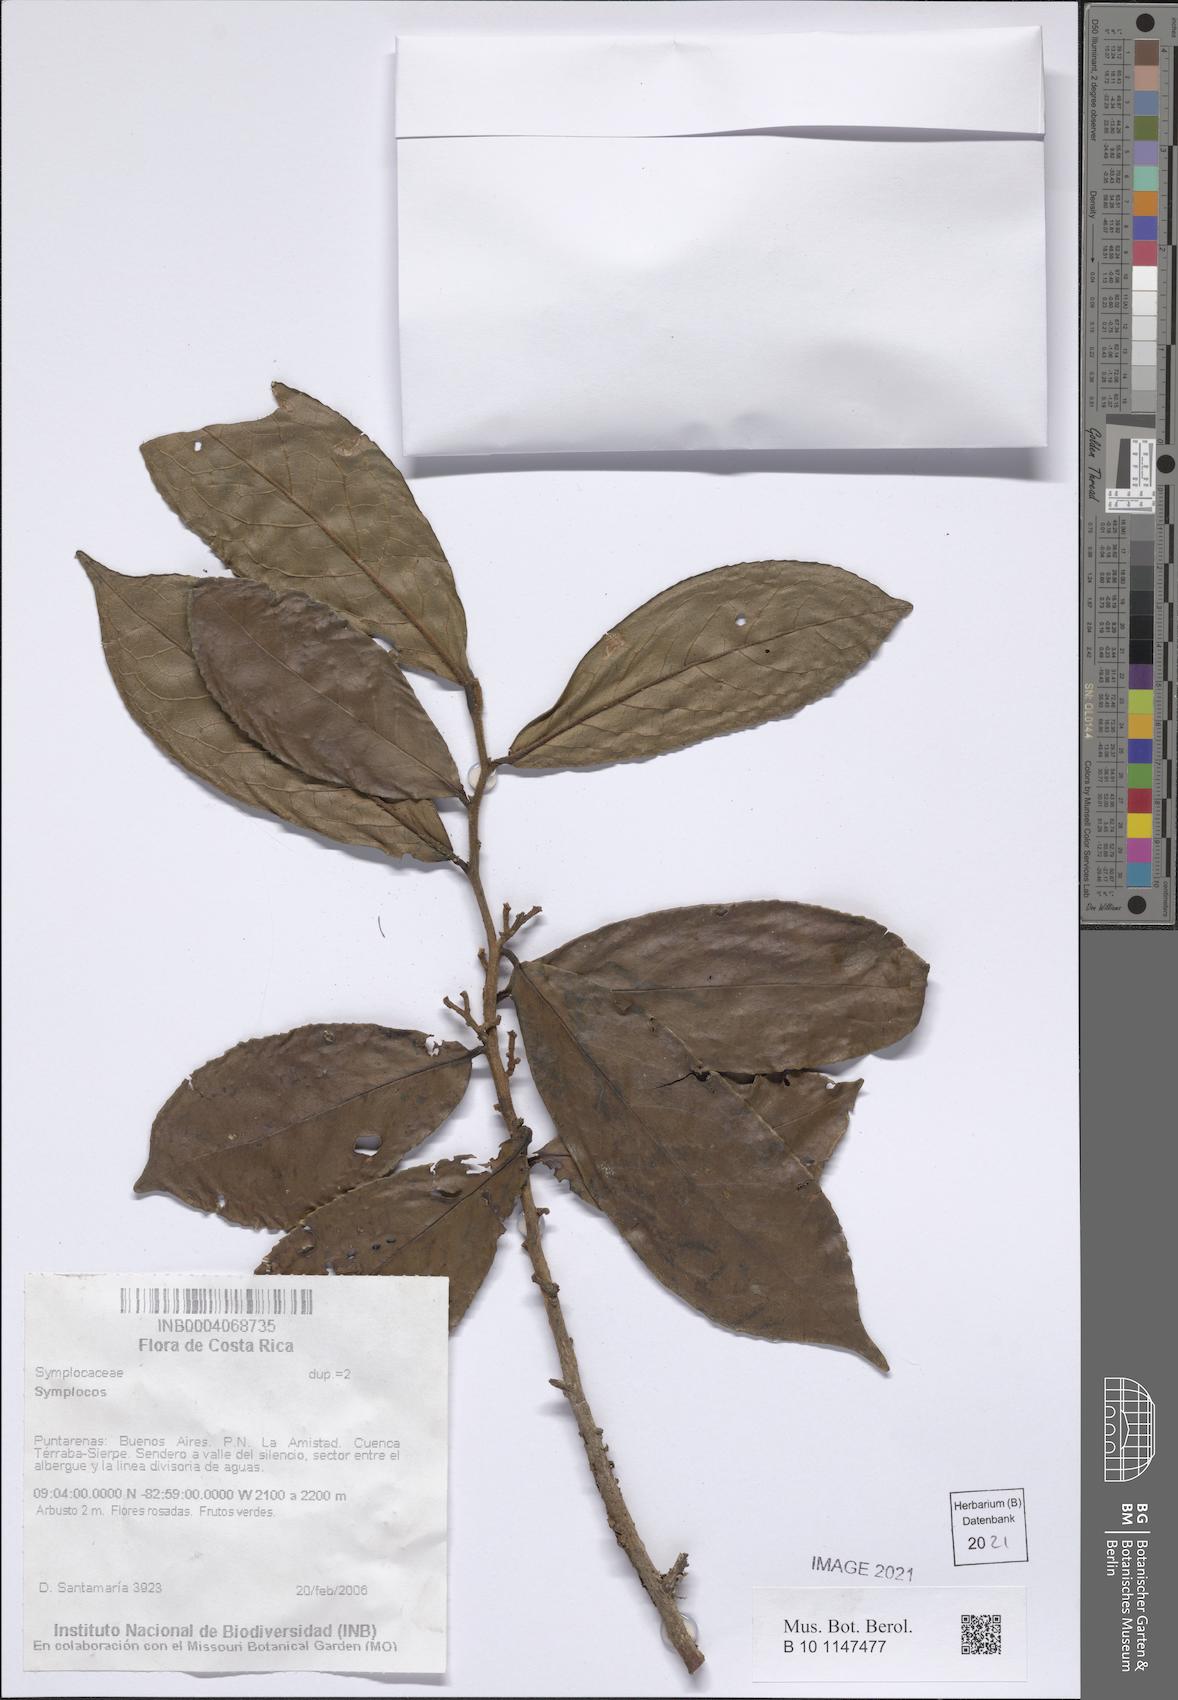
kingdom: Plantae
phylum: Tracheophyta
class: Magnoliopsida
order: Ericales
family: Symplocaceae
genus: Symplocos
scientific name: Symplocos
